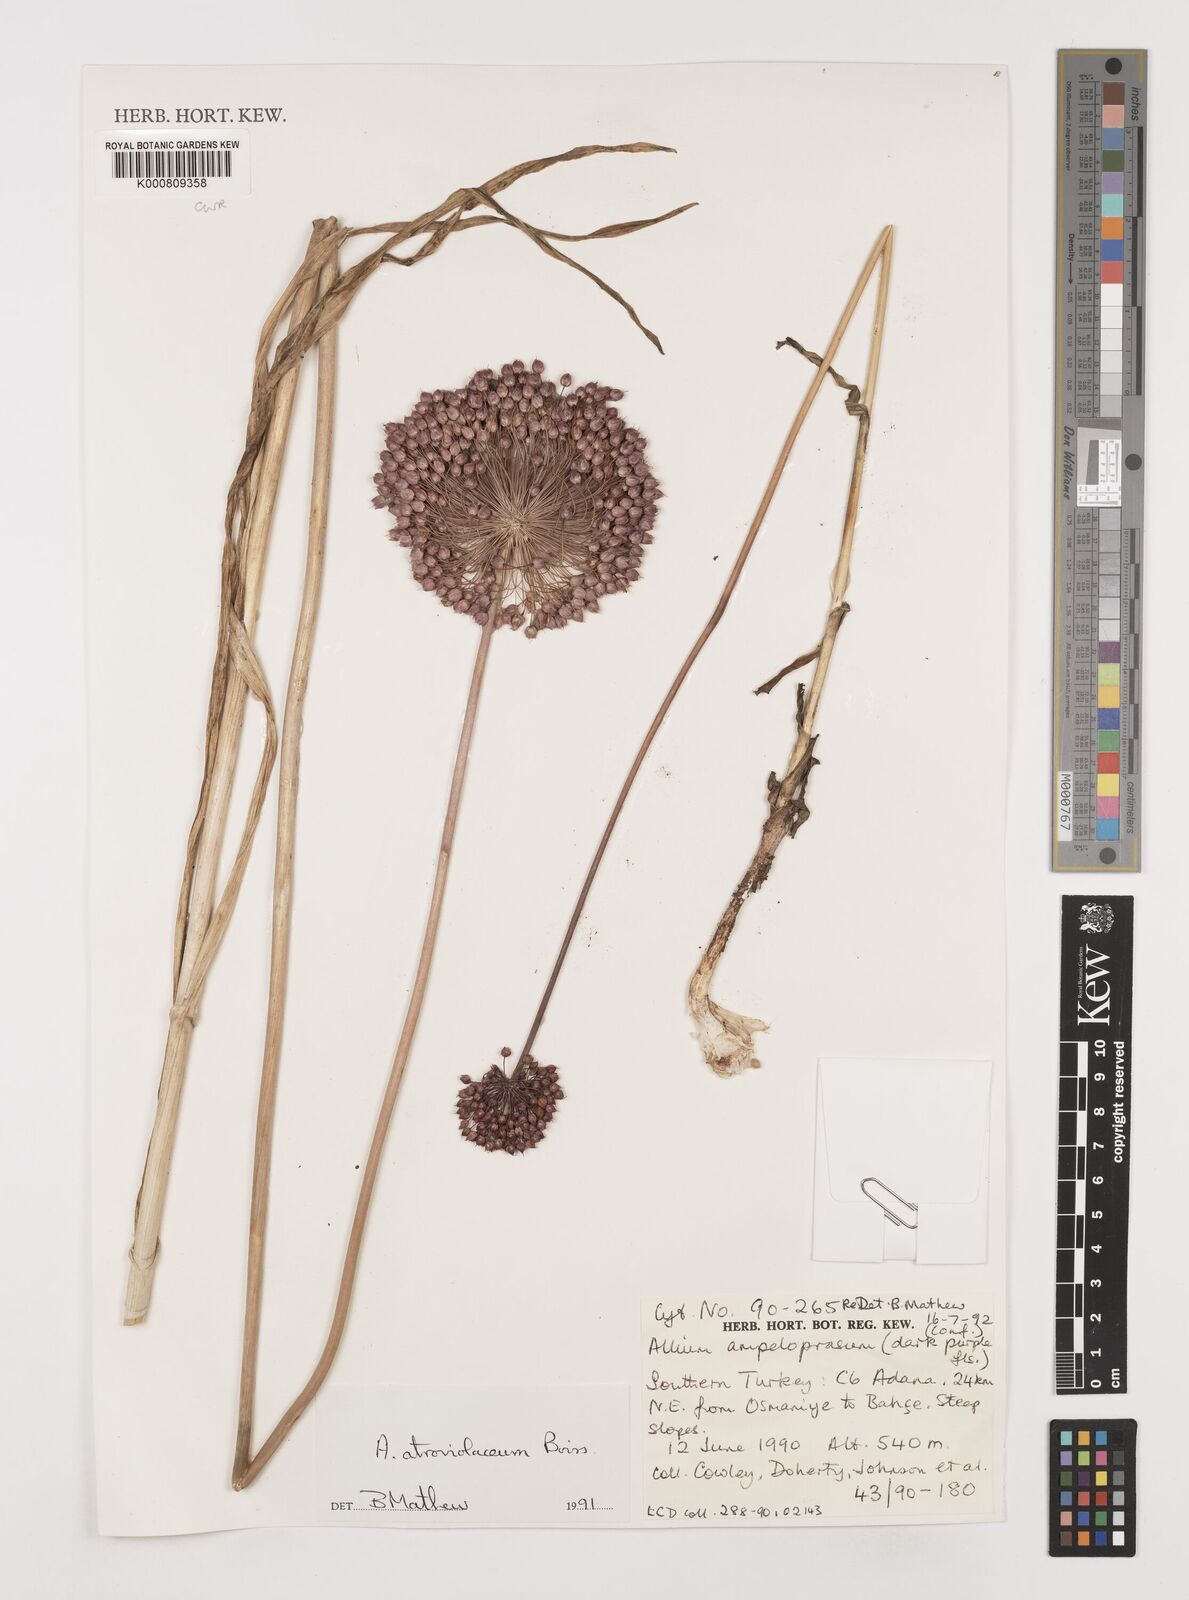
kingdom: Plantae
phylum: Tracheophyta
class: Liliopsida
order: Asparagales
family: Amaryllidaceae
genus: Allium
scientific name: Allium atroviolaceum
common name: Broadleaf wild leek
